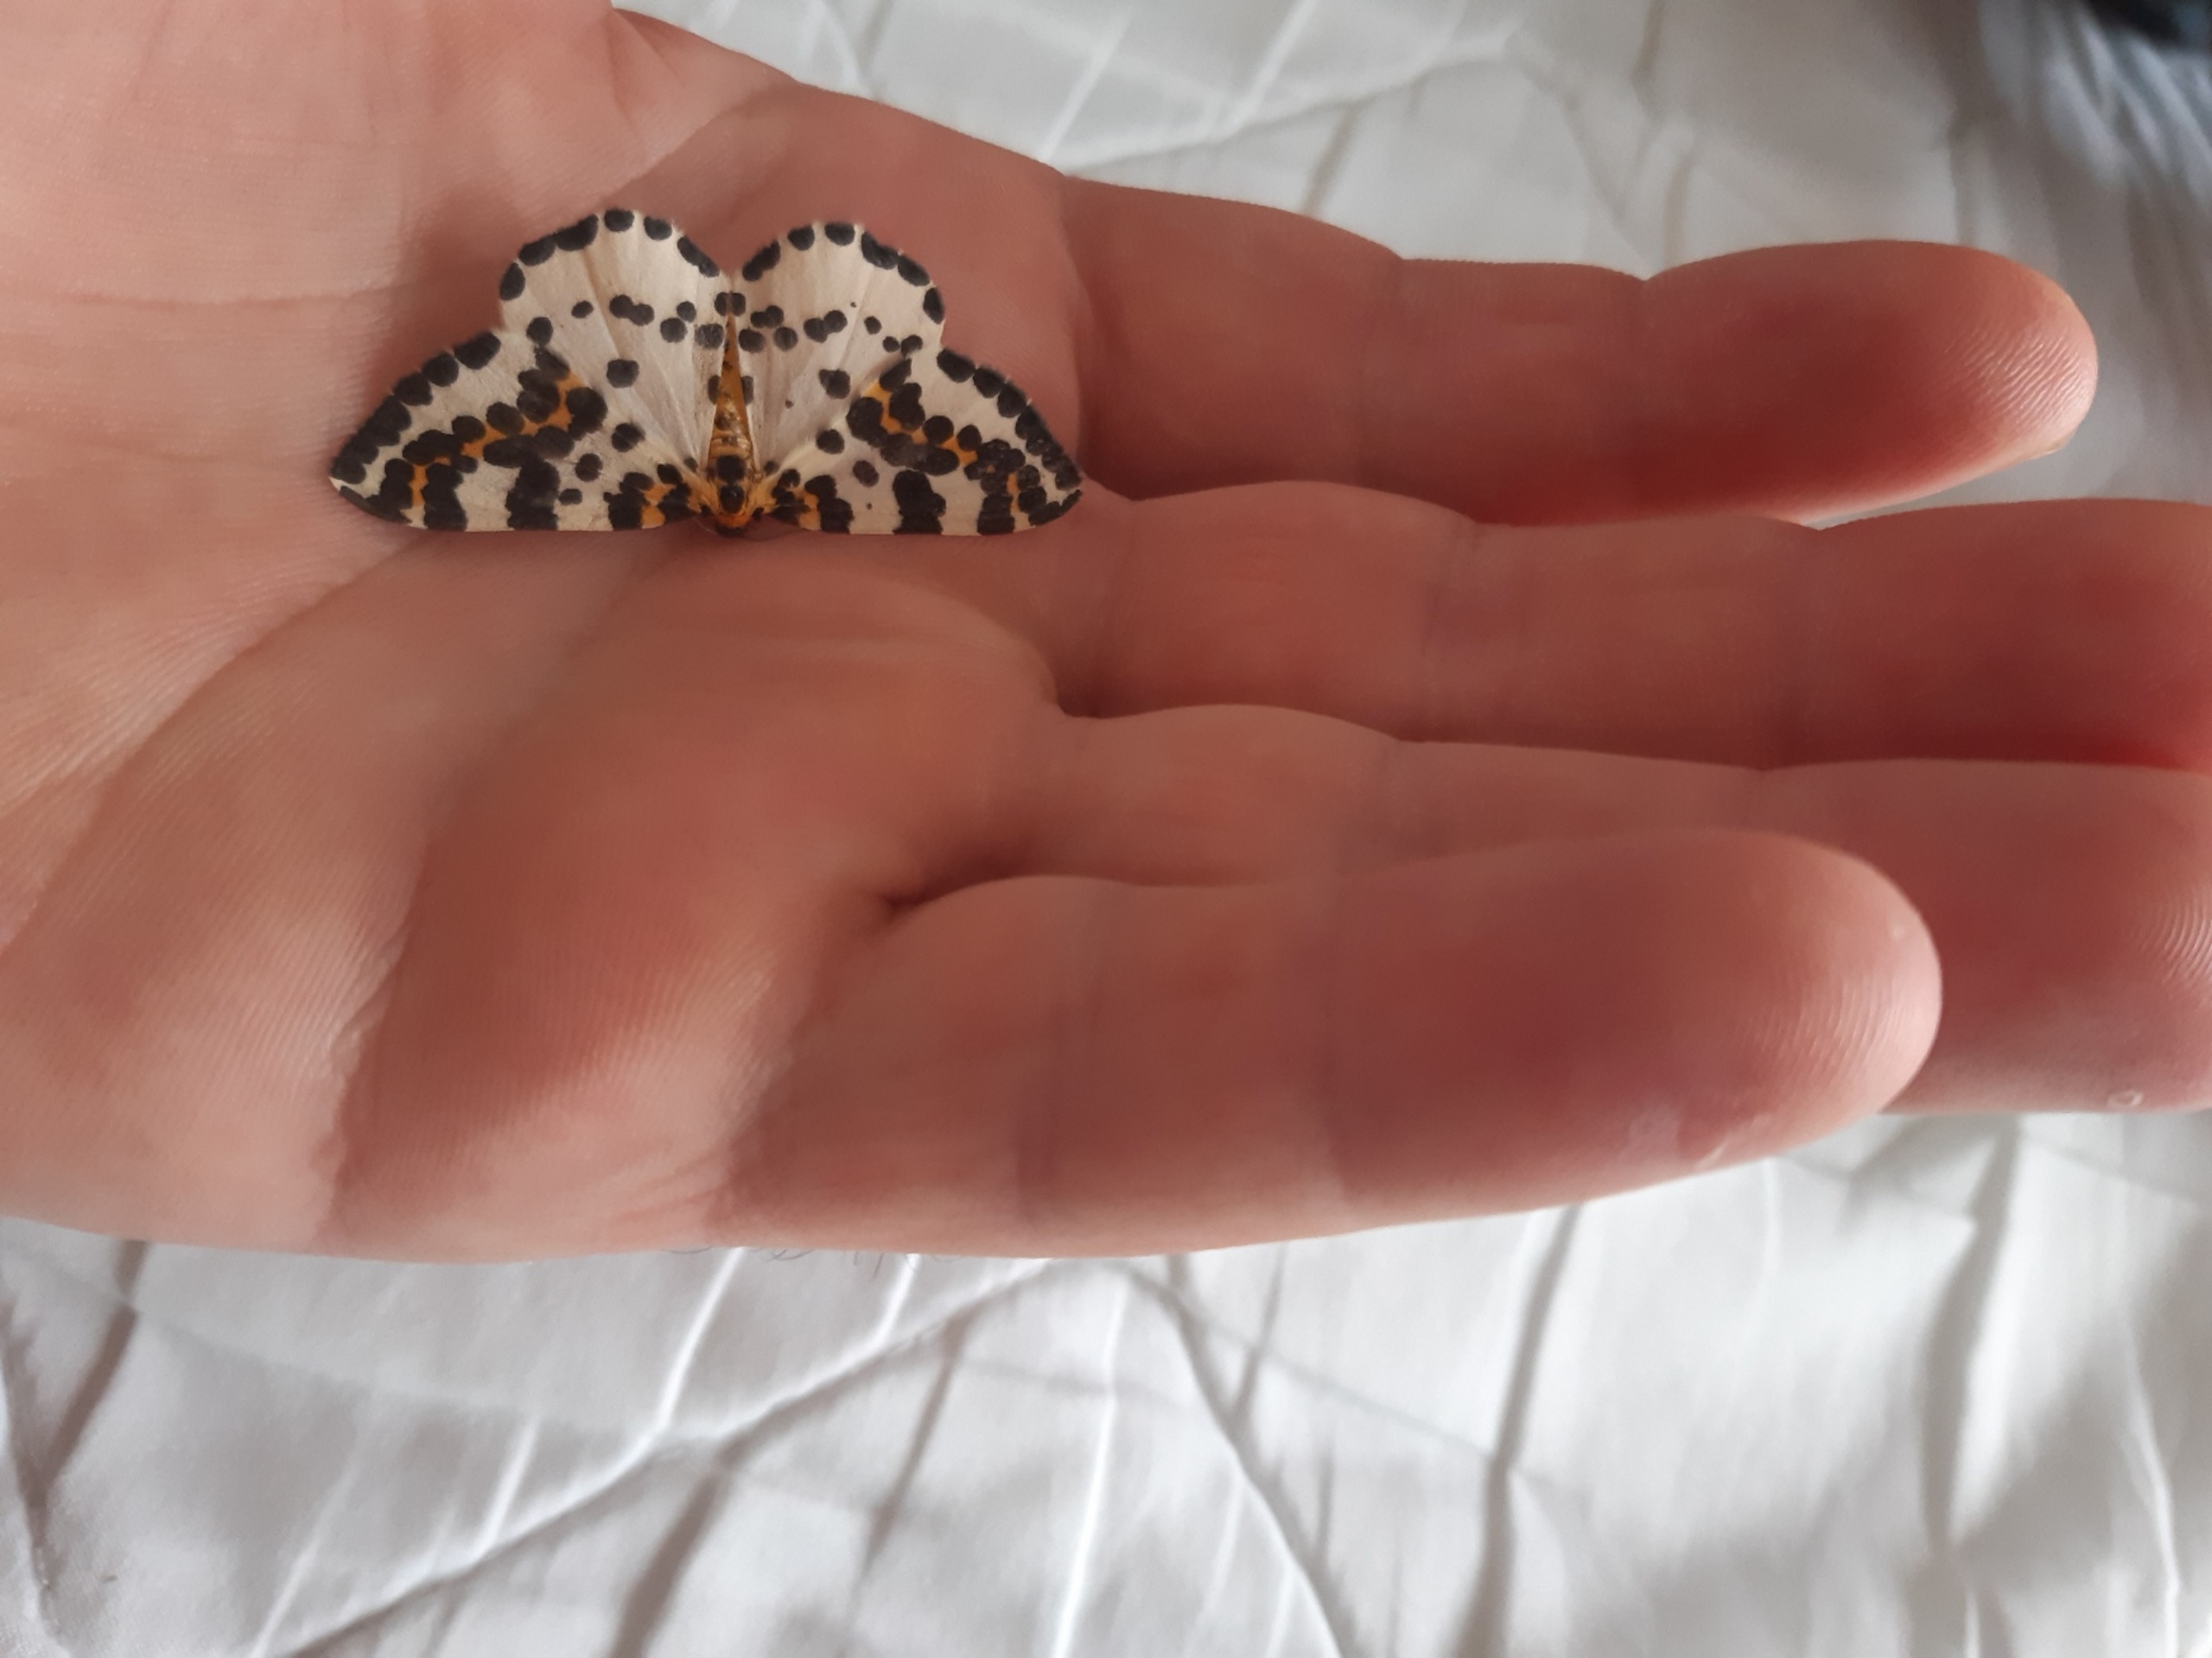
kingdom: Animalia
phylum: Arthropoda
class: Insecta
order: Lepidoptera
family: Geometridae
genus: Abraxas
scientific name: Abraxas grossulariata
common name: Harlekin
